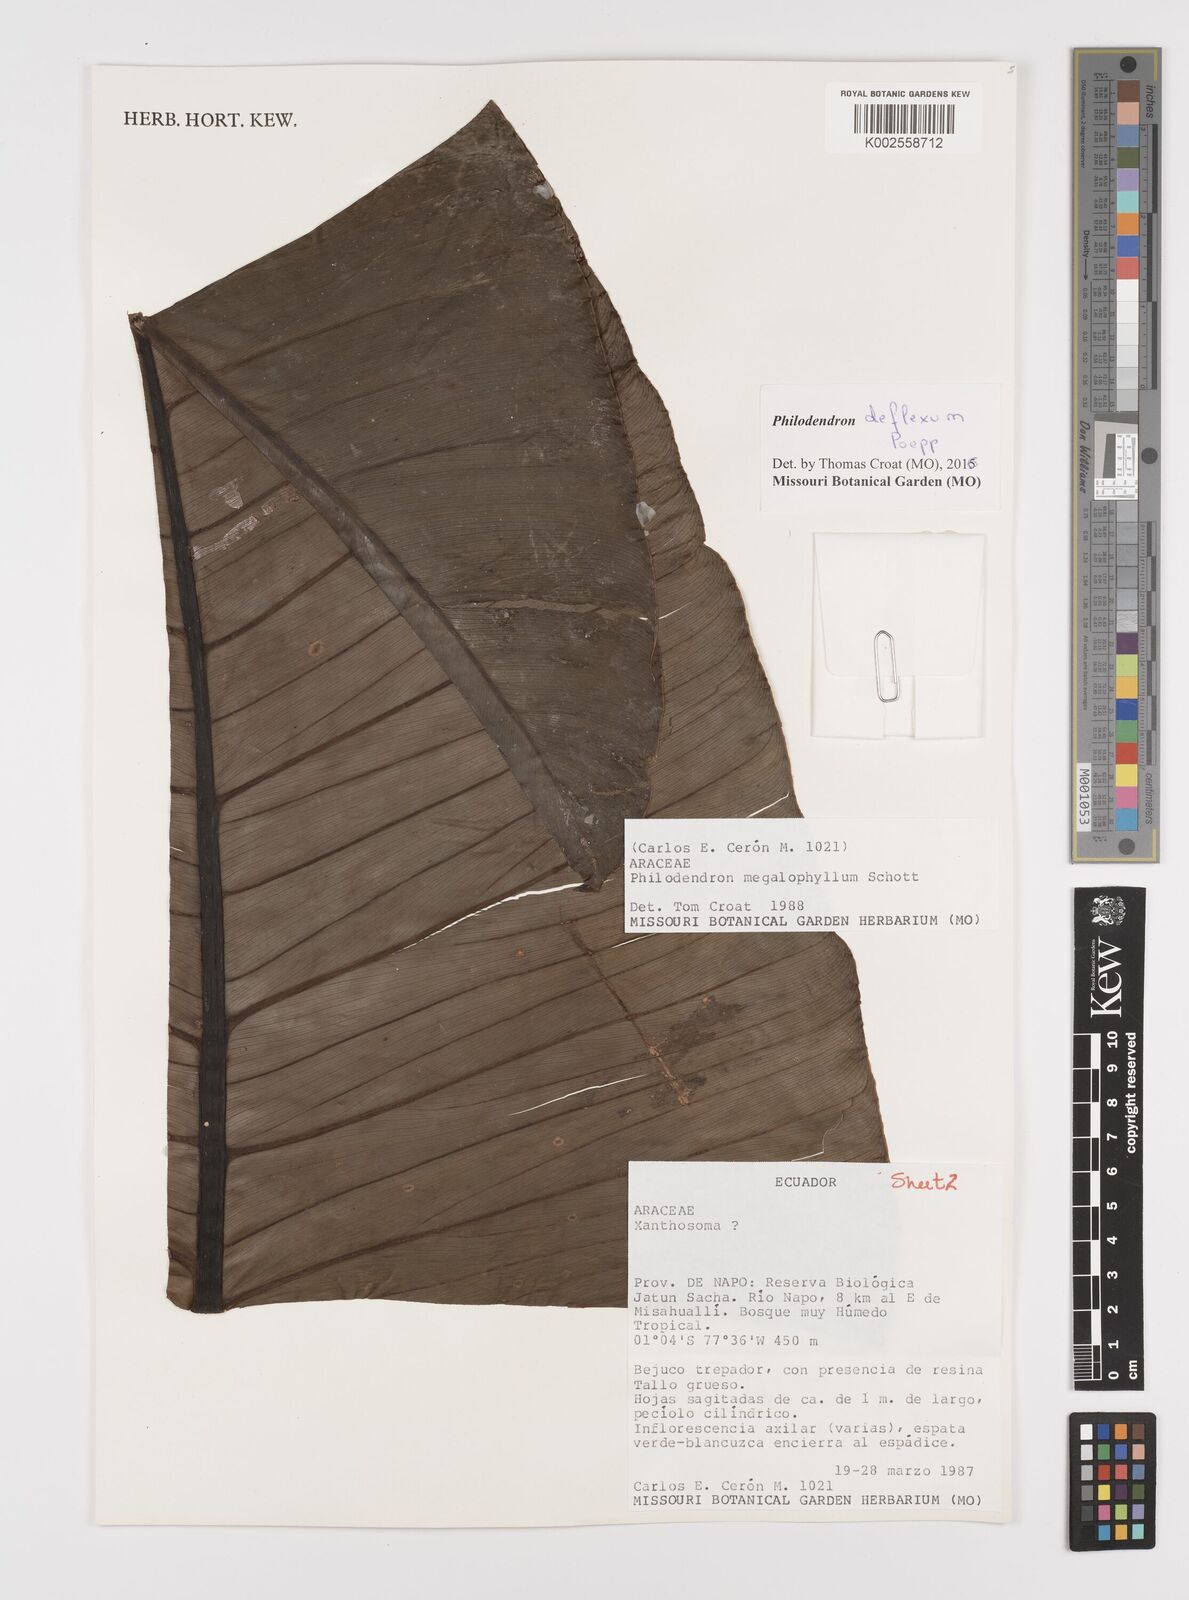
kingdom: Plantae
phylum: Tracheophyta
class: Liliopsida
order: Alismatales
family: Araceae
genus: Philodendron
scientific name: Philodendron deflexum
